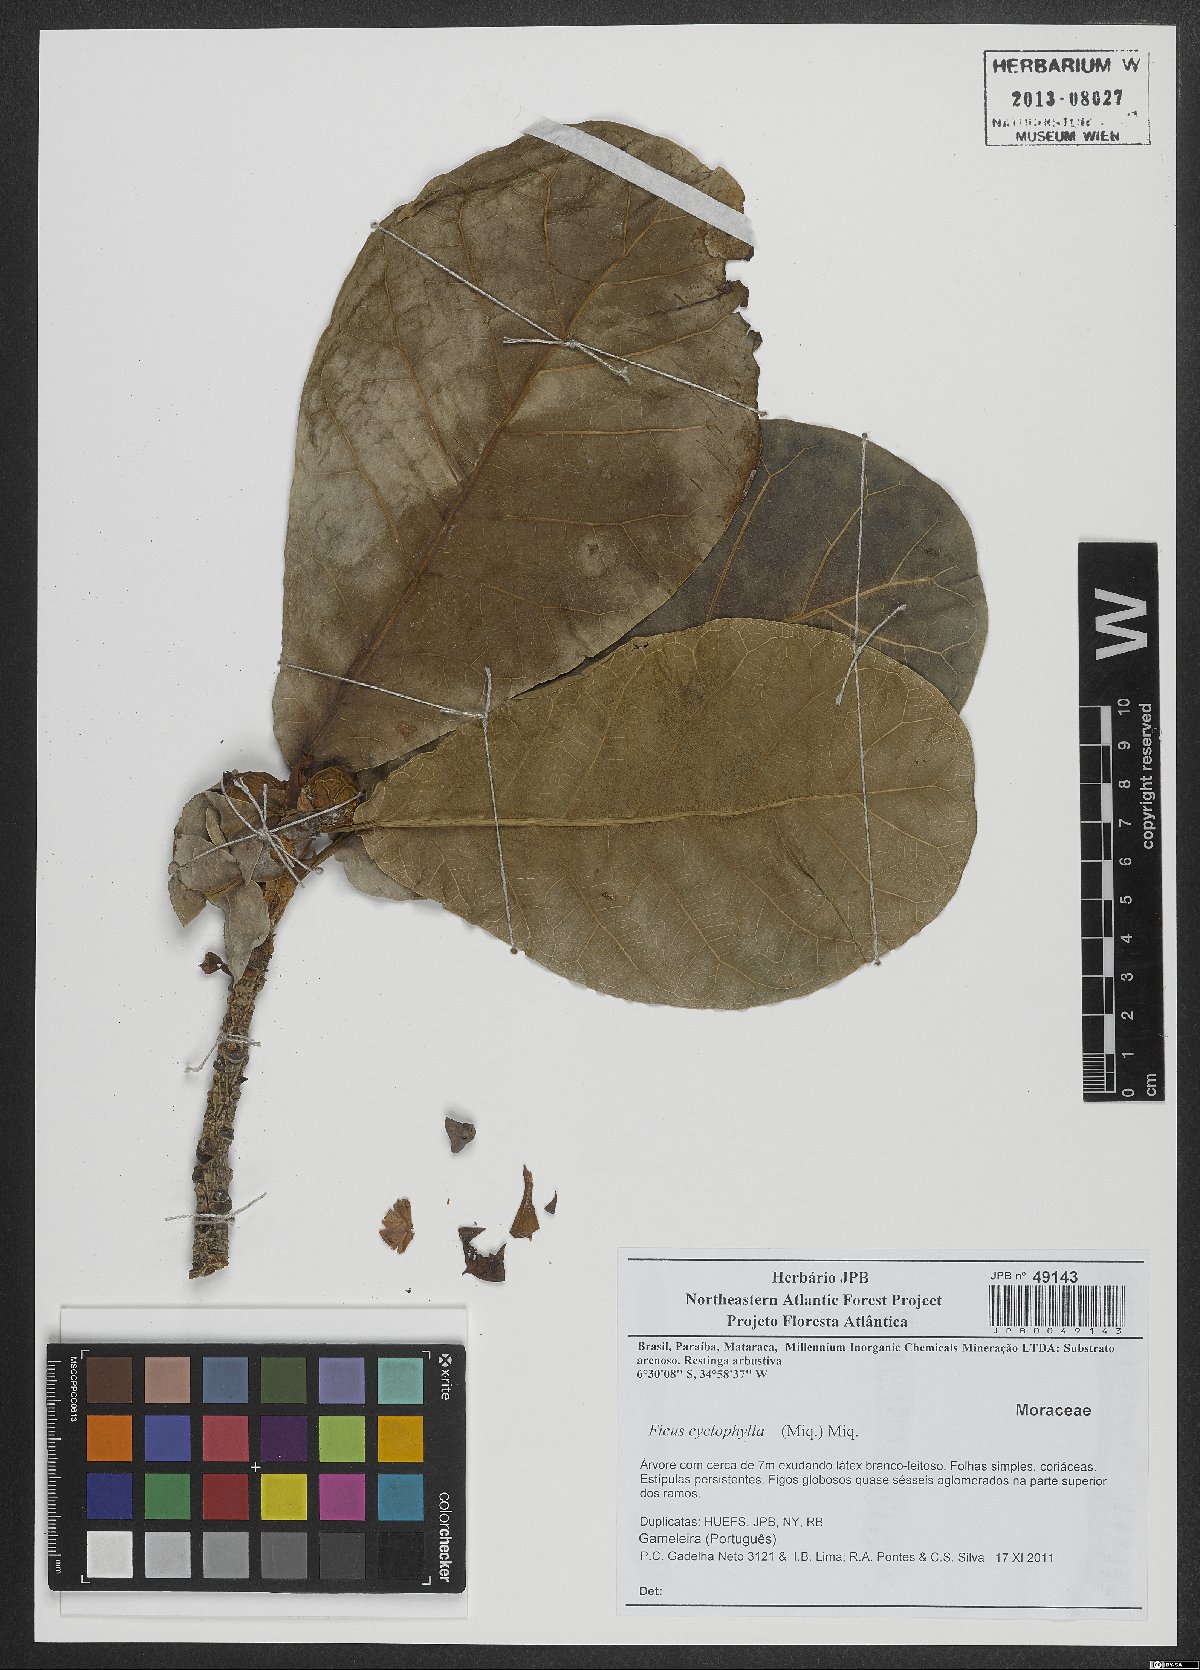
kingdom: Plantae
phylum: Tracheophyta
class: Magnoliopsida
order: Rosales
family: Moraceae
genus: Ficus
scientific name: Ficus cyclophylla
